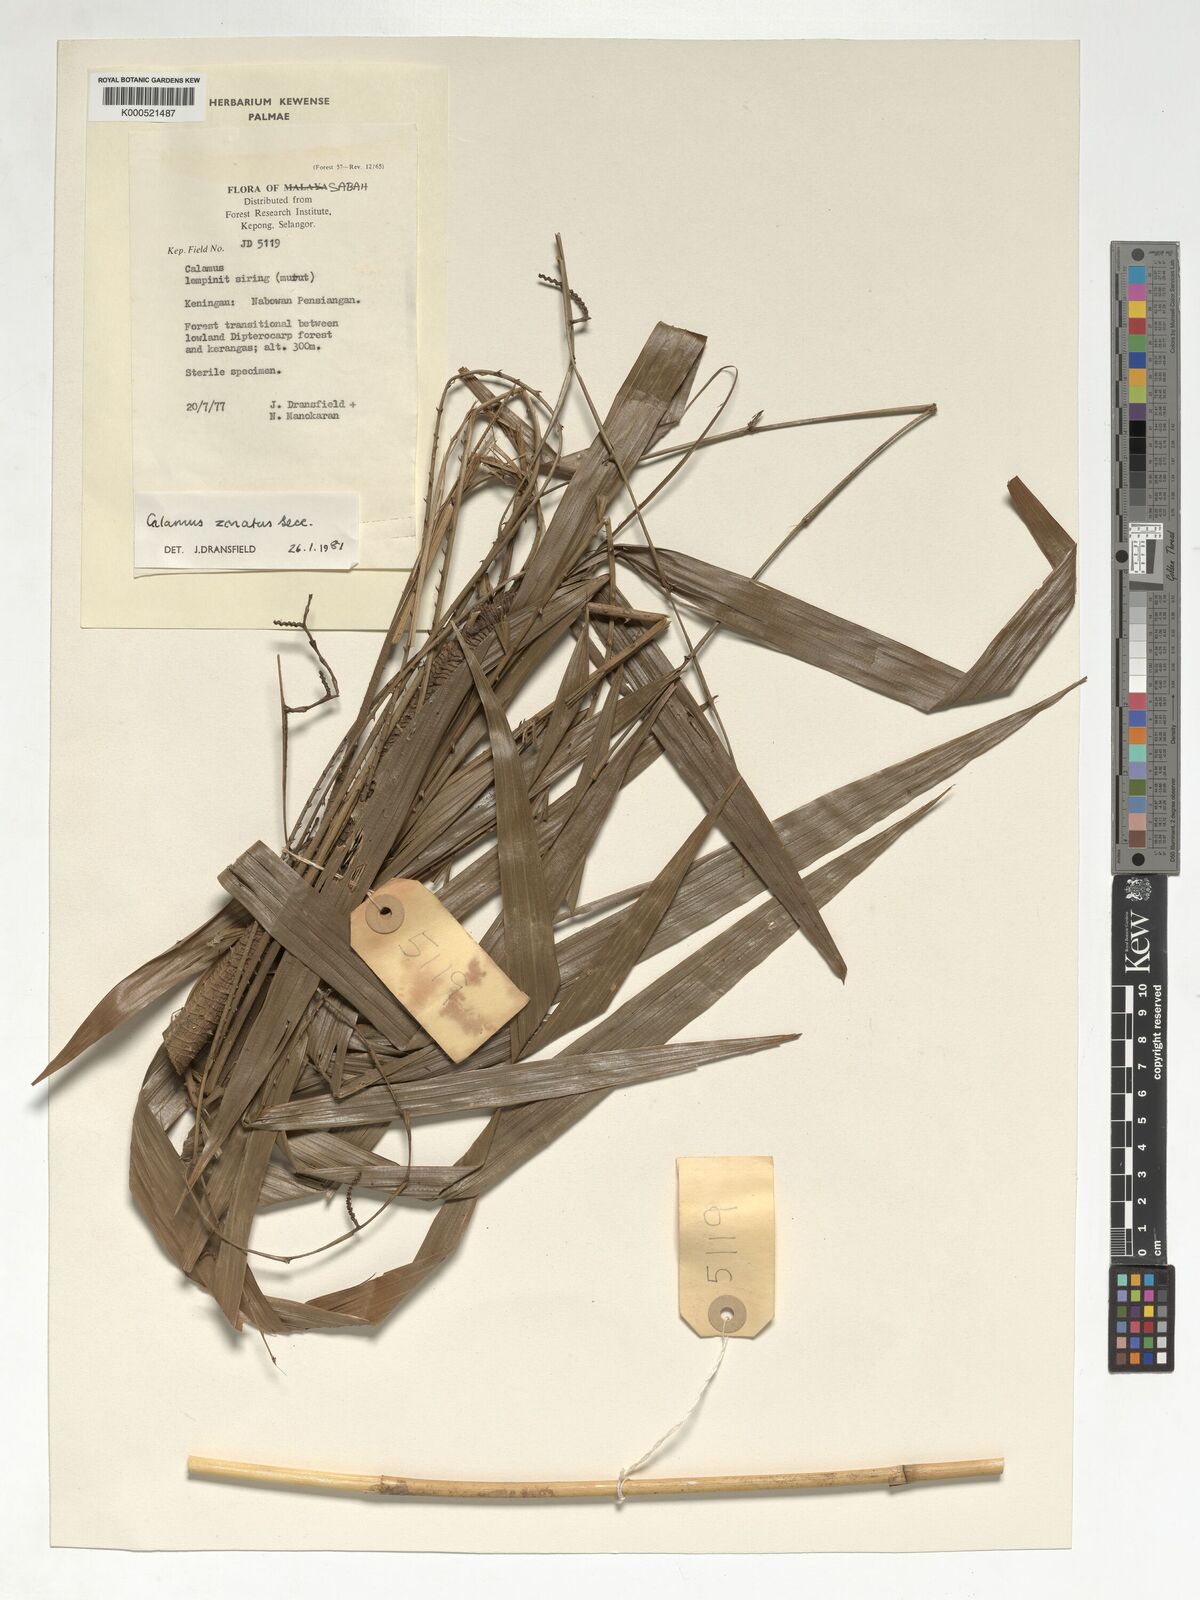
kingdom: Plantae
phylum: Tracheophyta
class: Liliopsida
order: Arecales
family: Arecaceae
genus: Calamus
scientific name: Calamus zonatus
